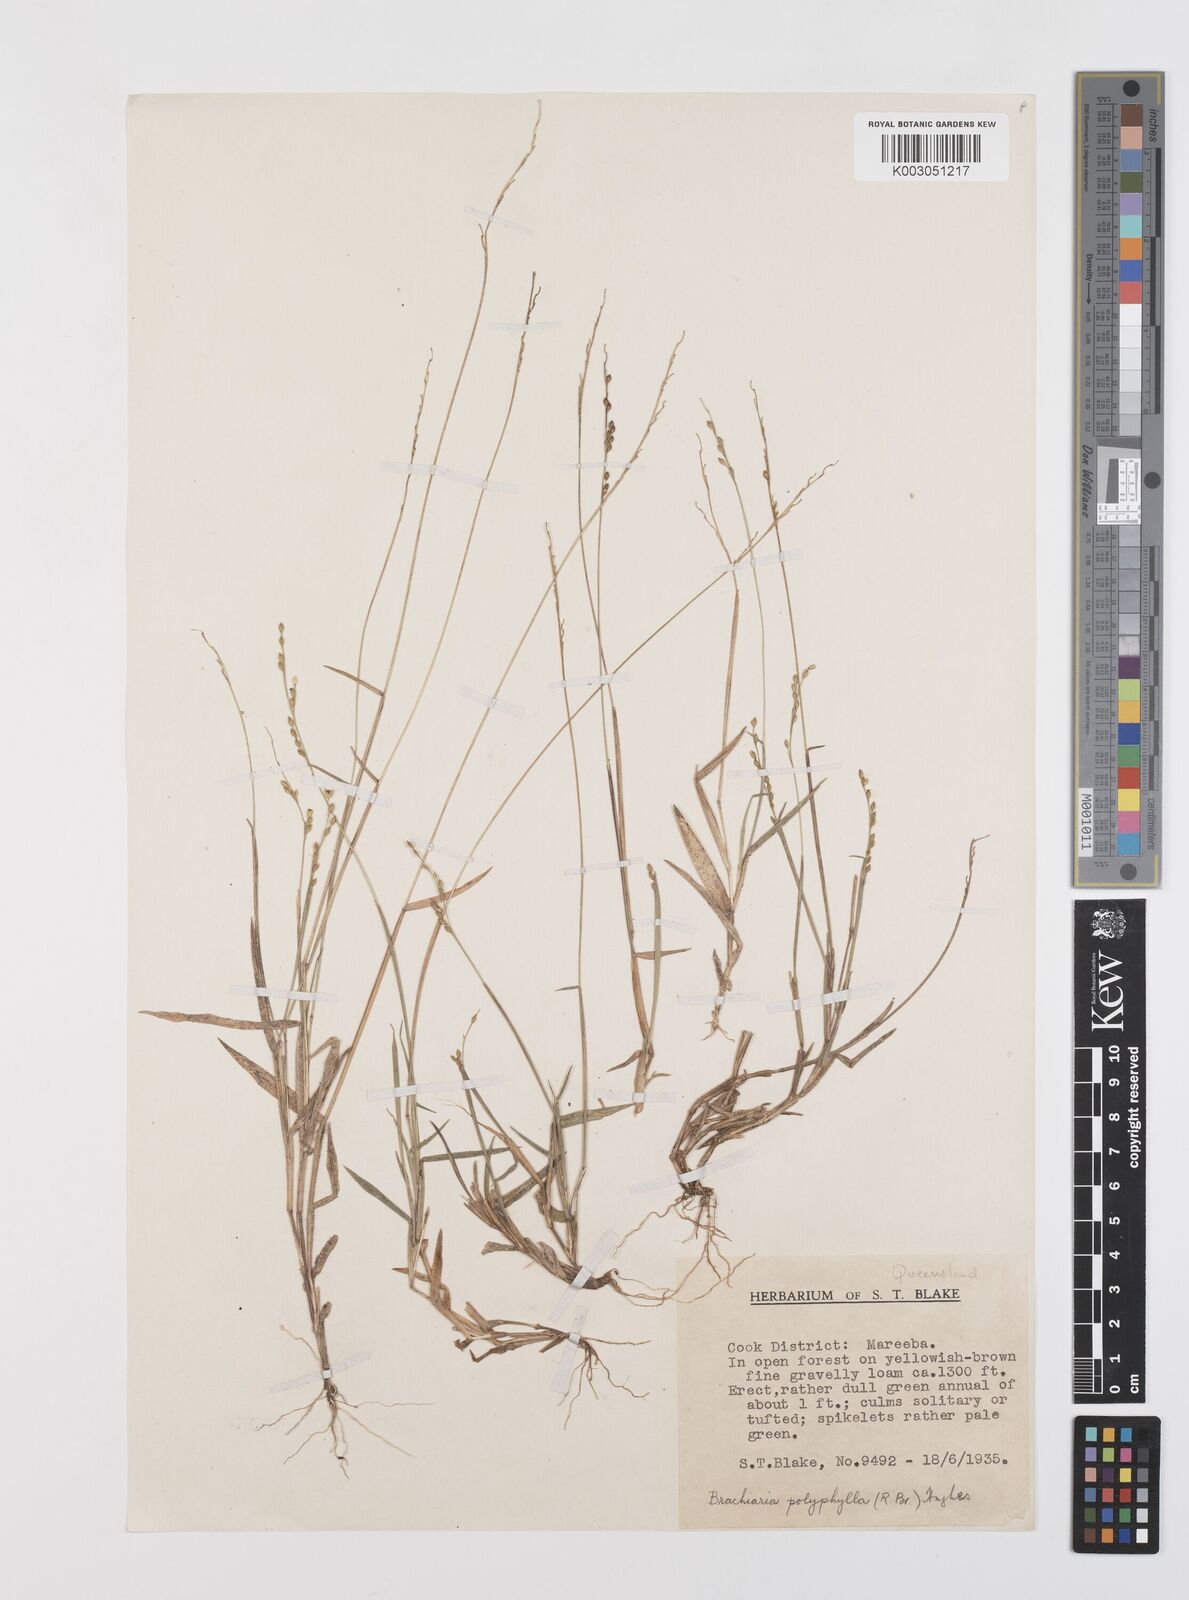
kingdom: Plantae
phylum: Tracheophyta
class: Liliopsida
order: Poales
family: Poaceae
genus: Urochloa
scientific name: Urochloa polyphylla
